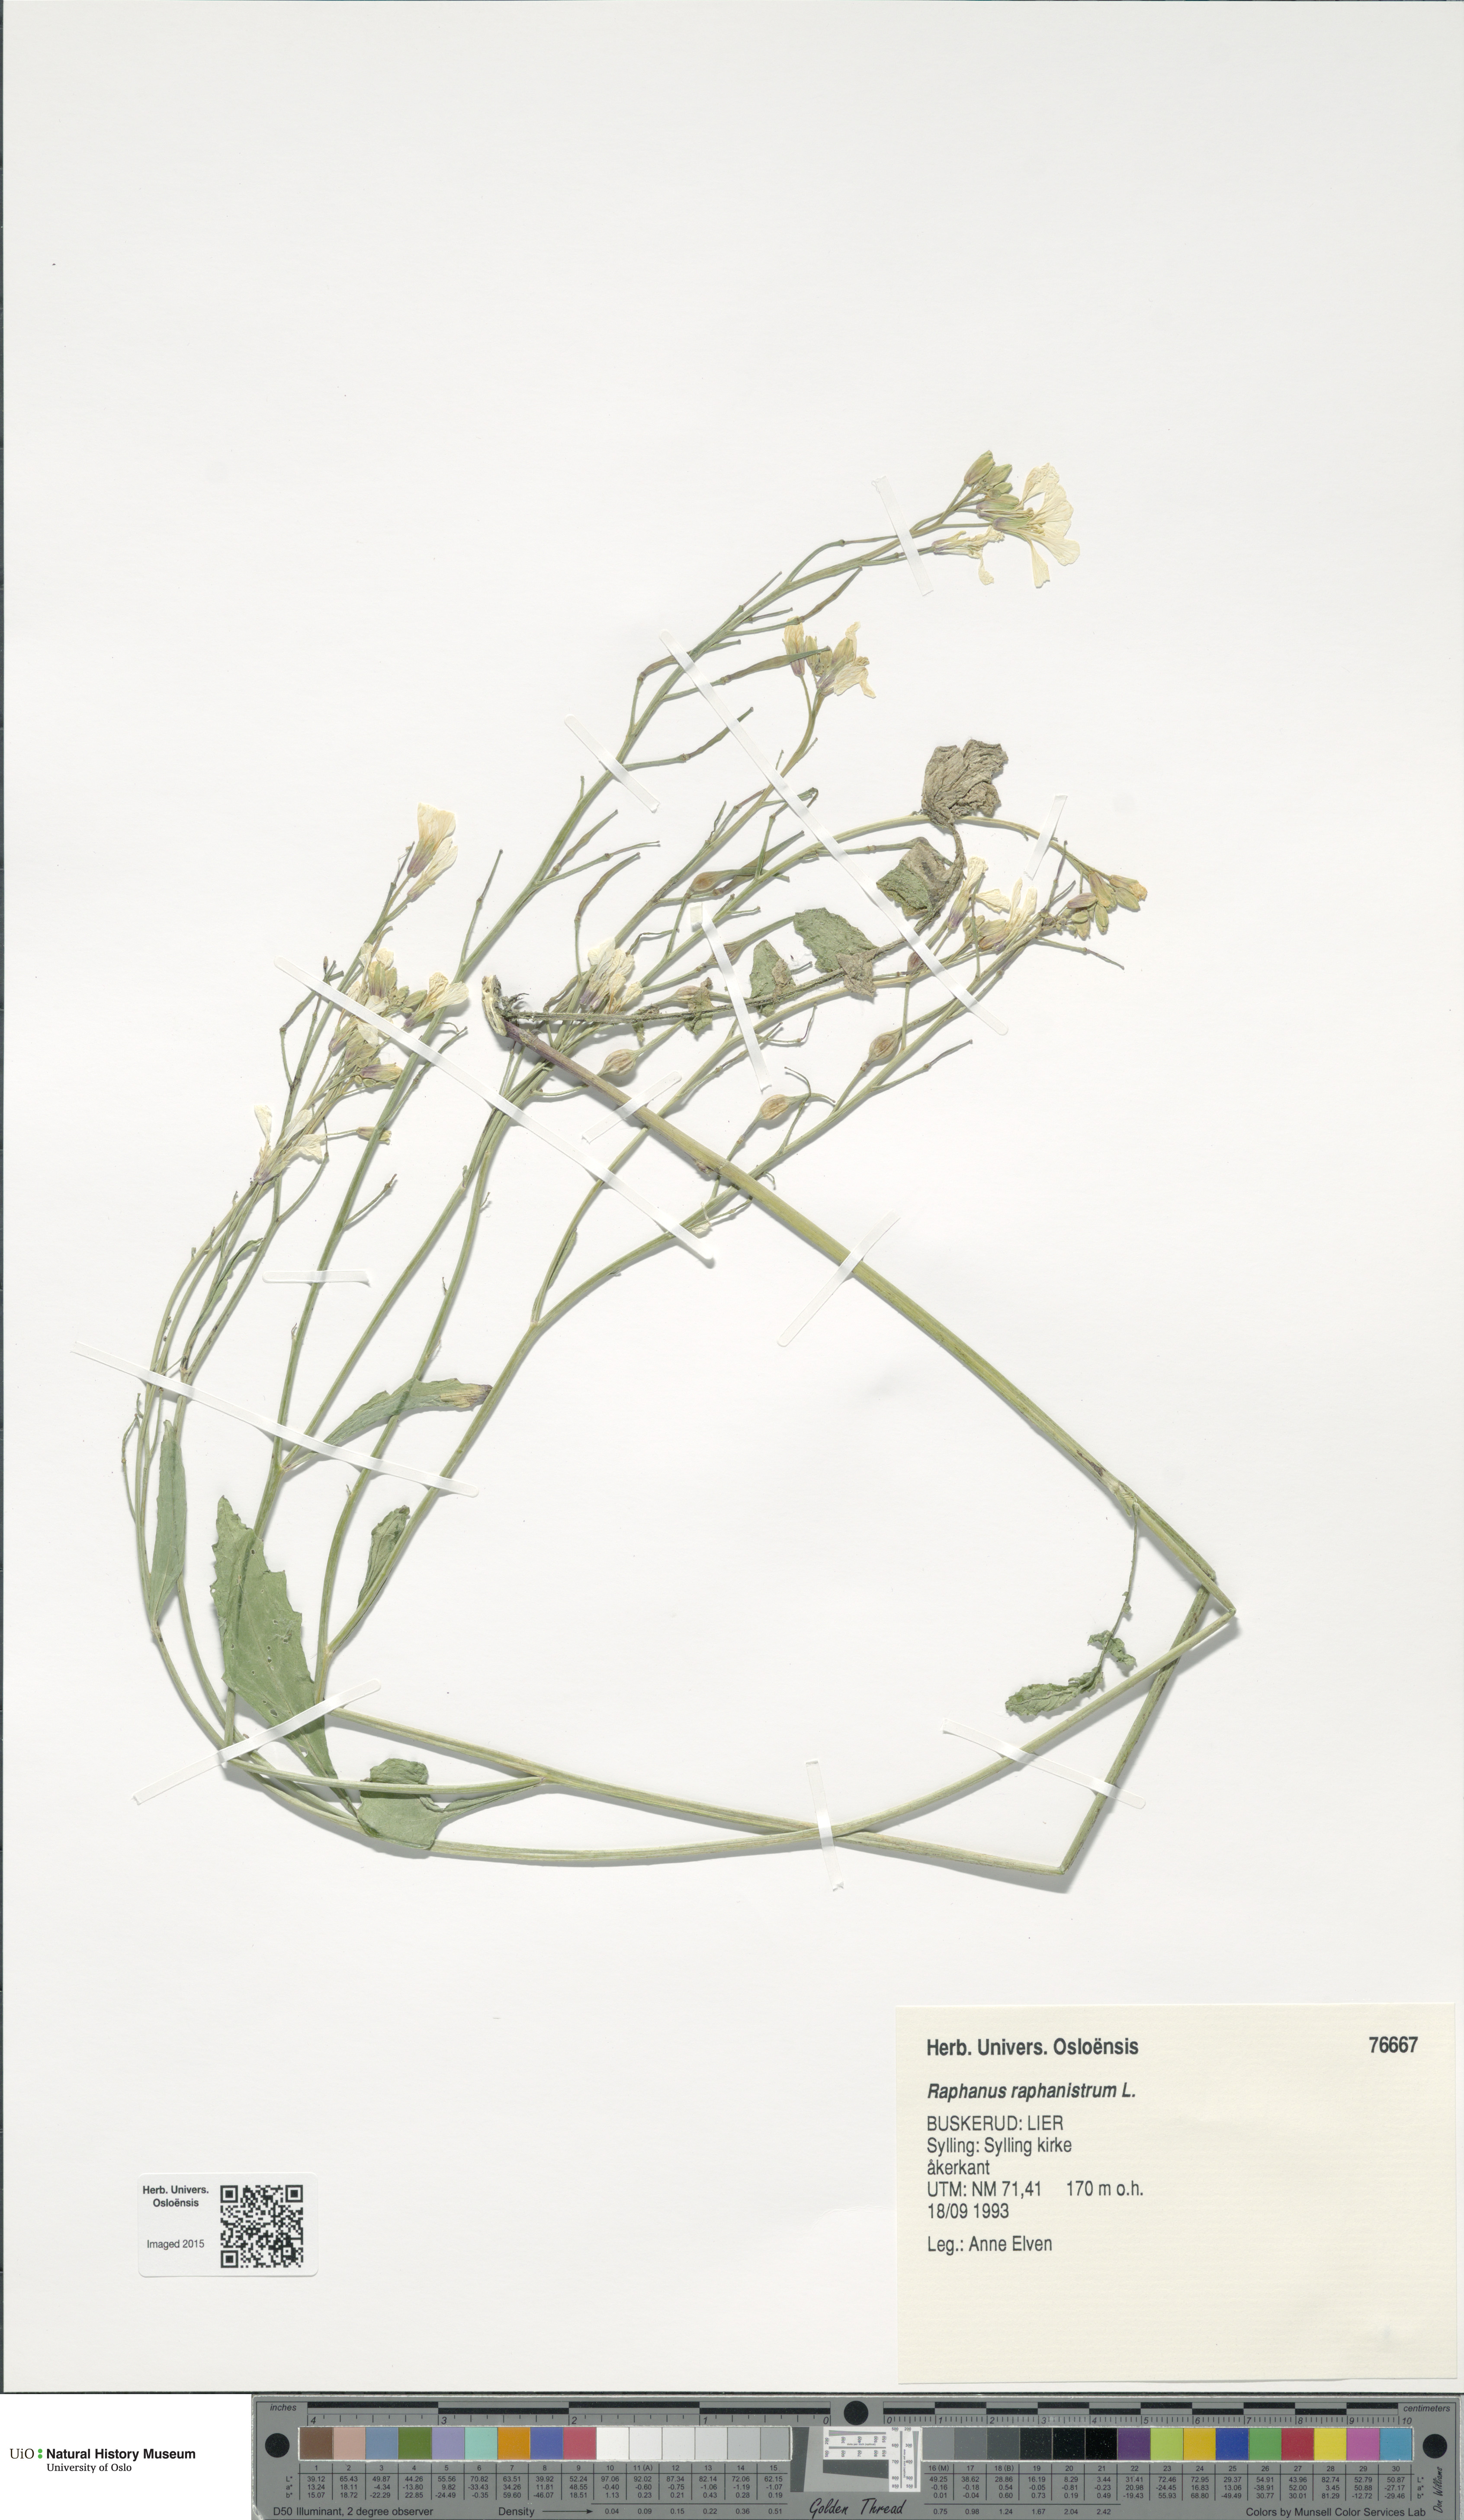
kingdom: Plantae
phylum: Tracheophyta
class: Magnoliopsida
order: Brassicales
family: Brassicaceae
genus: Raphanus
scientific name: Raphanus raphanistrum
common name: Wild radish
